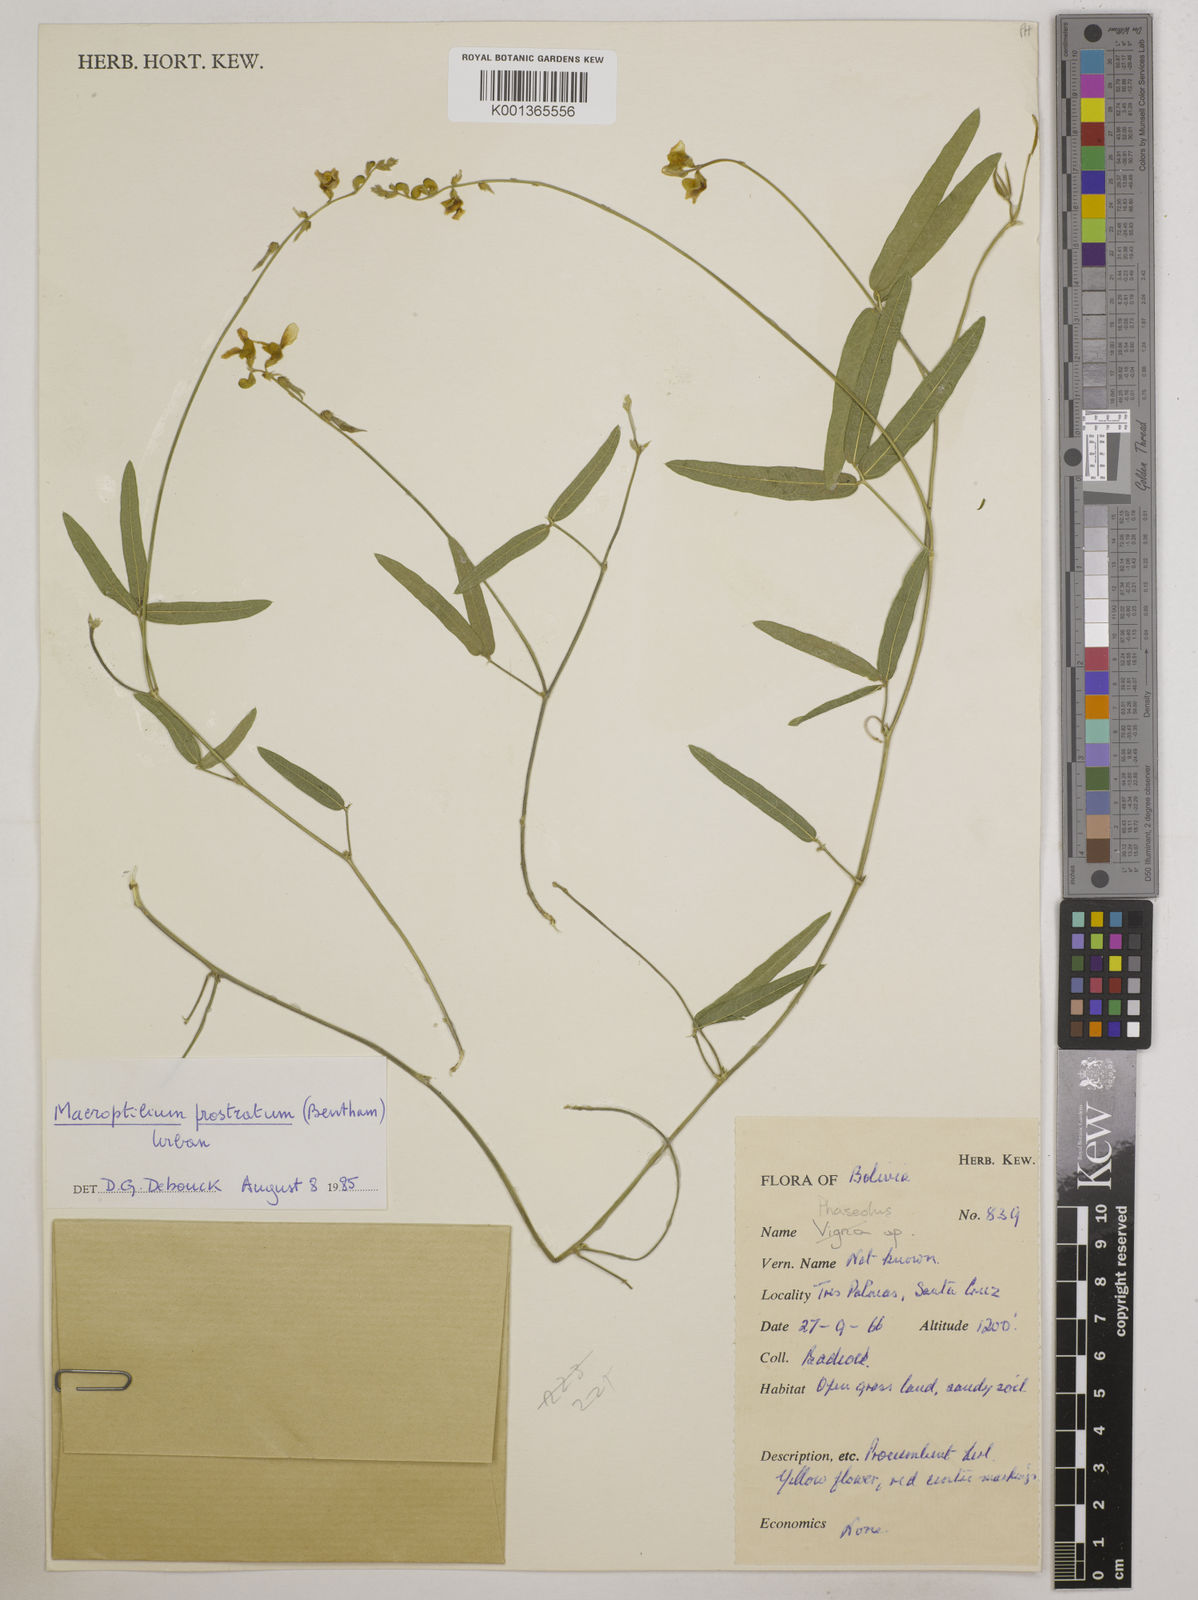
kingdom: Plantae
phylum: Tracheophyta
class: Magnoliopsida
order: Fabales
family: Fabaceae
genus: Macroptilium
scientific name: Macroptilium prostratum
